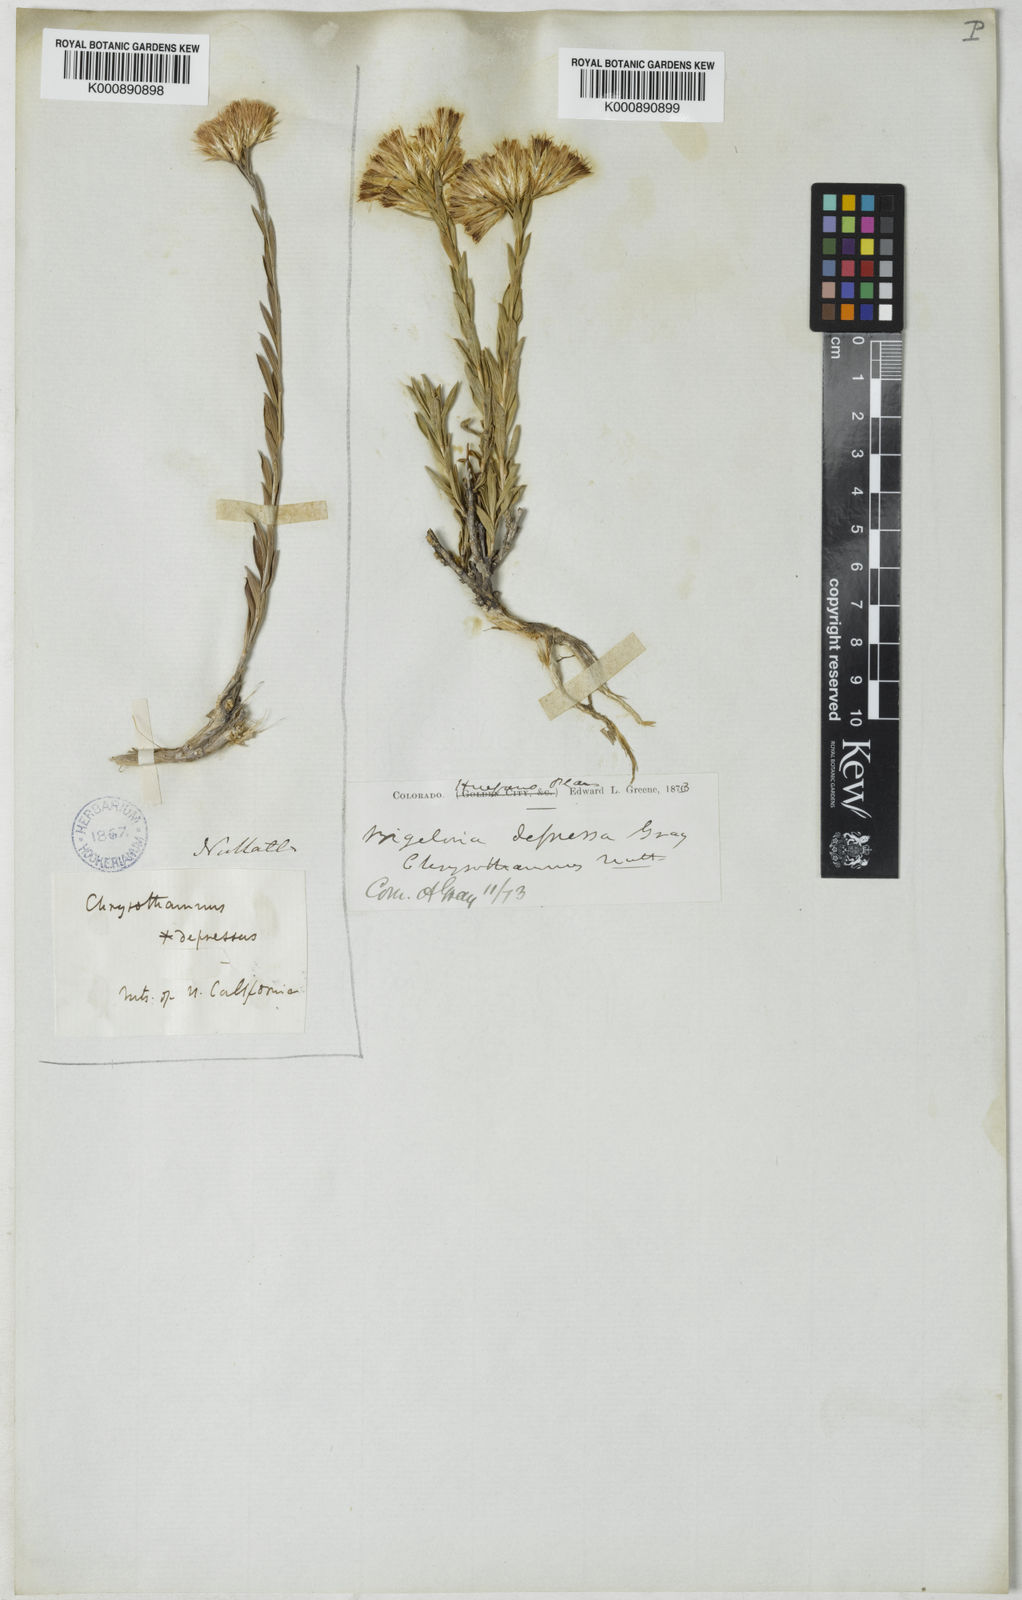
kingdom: Plantae
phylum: Tracheophyta
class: Magnoliopsida
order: Asterales
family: Asteraceae
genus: Chrysothamnus
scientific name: Chrysothamnus depressus
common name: Long-flower rabbitbrush
